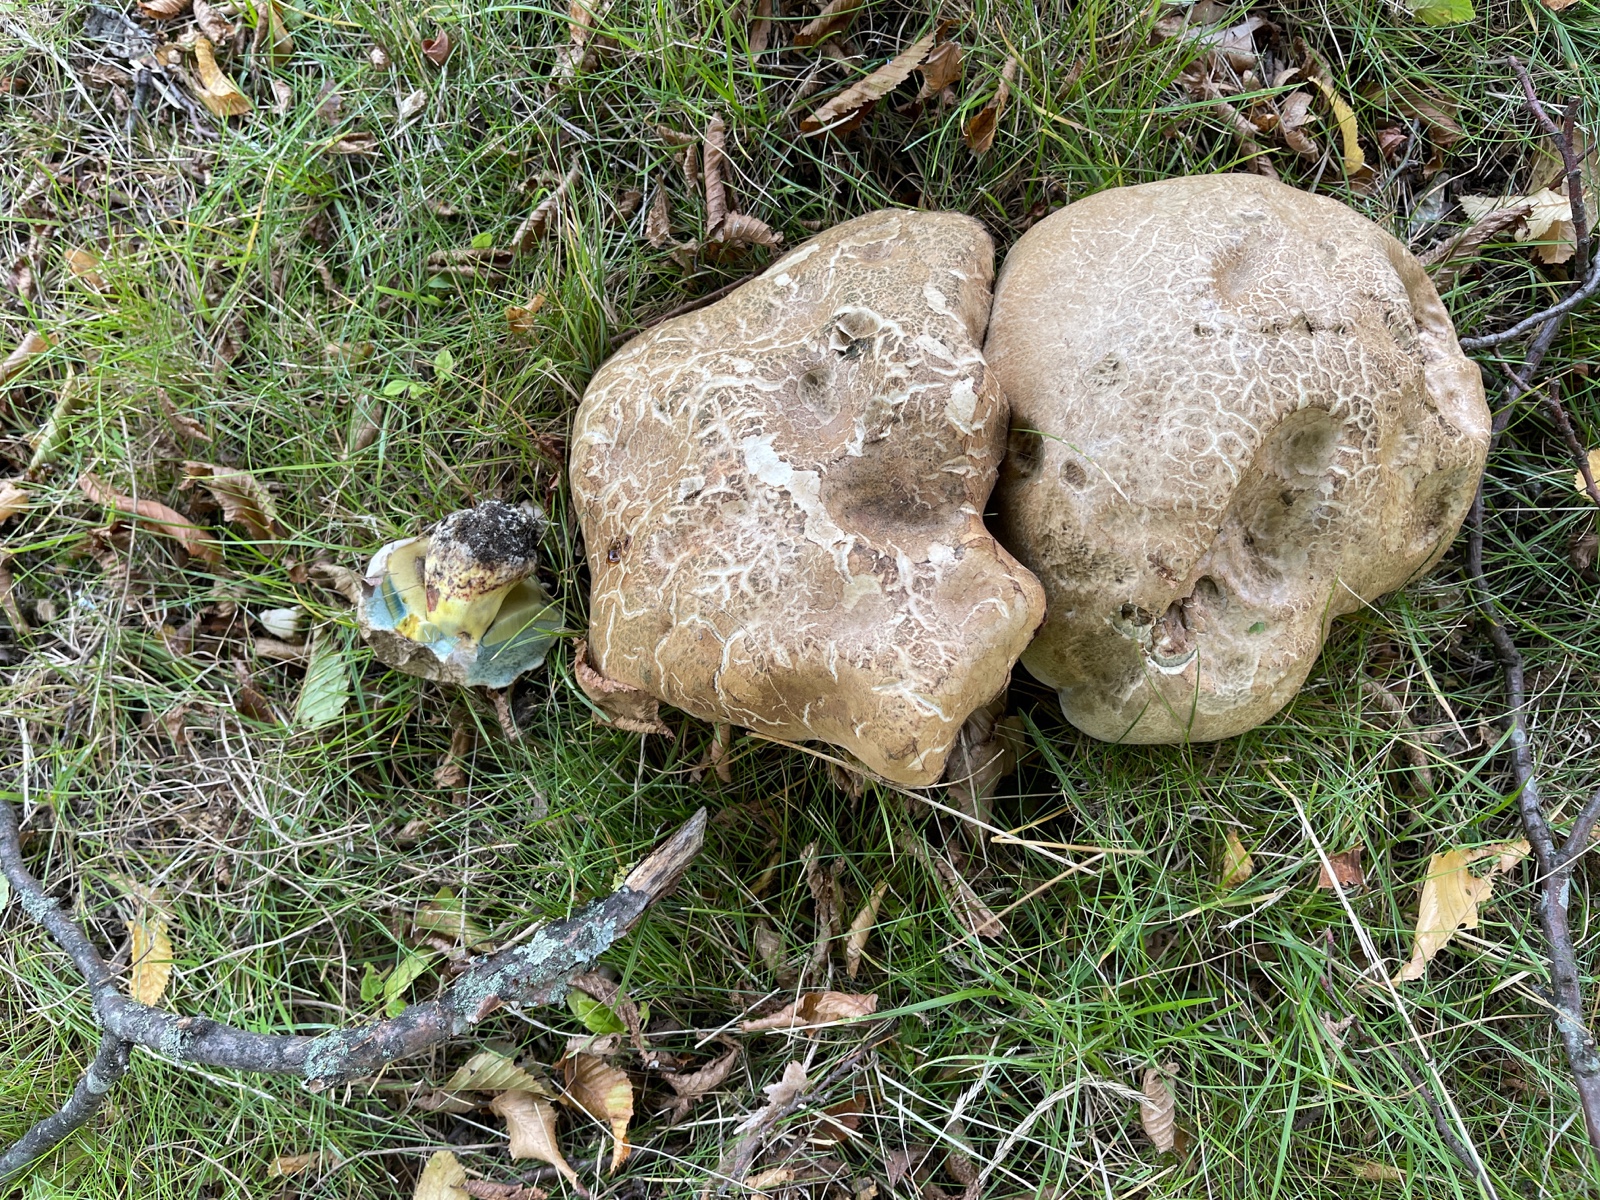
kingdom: Fungi
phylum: Basidiomycota
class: Agaricomycetes
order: Boletales
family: Boletaceae
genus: Caloboletus
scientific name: Caloboletus radicans
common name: rod-rørhat
